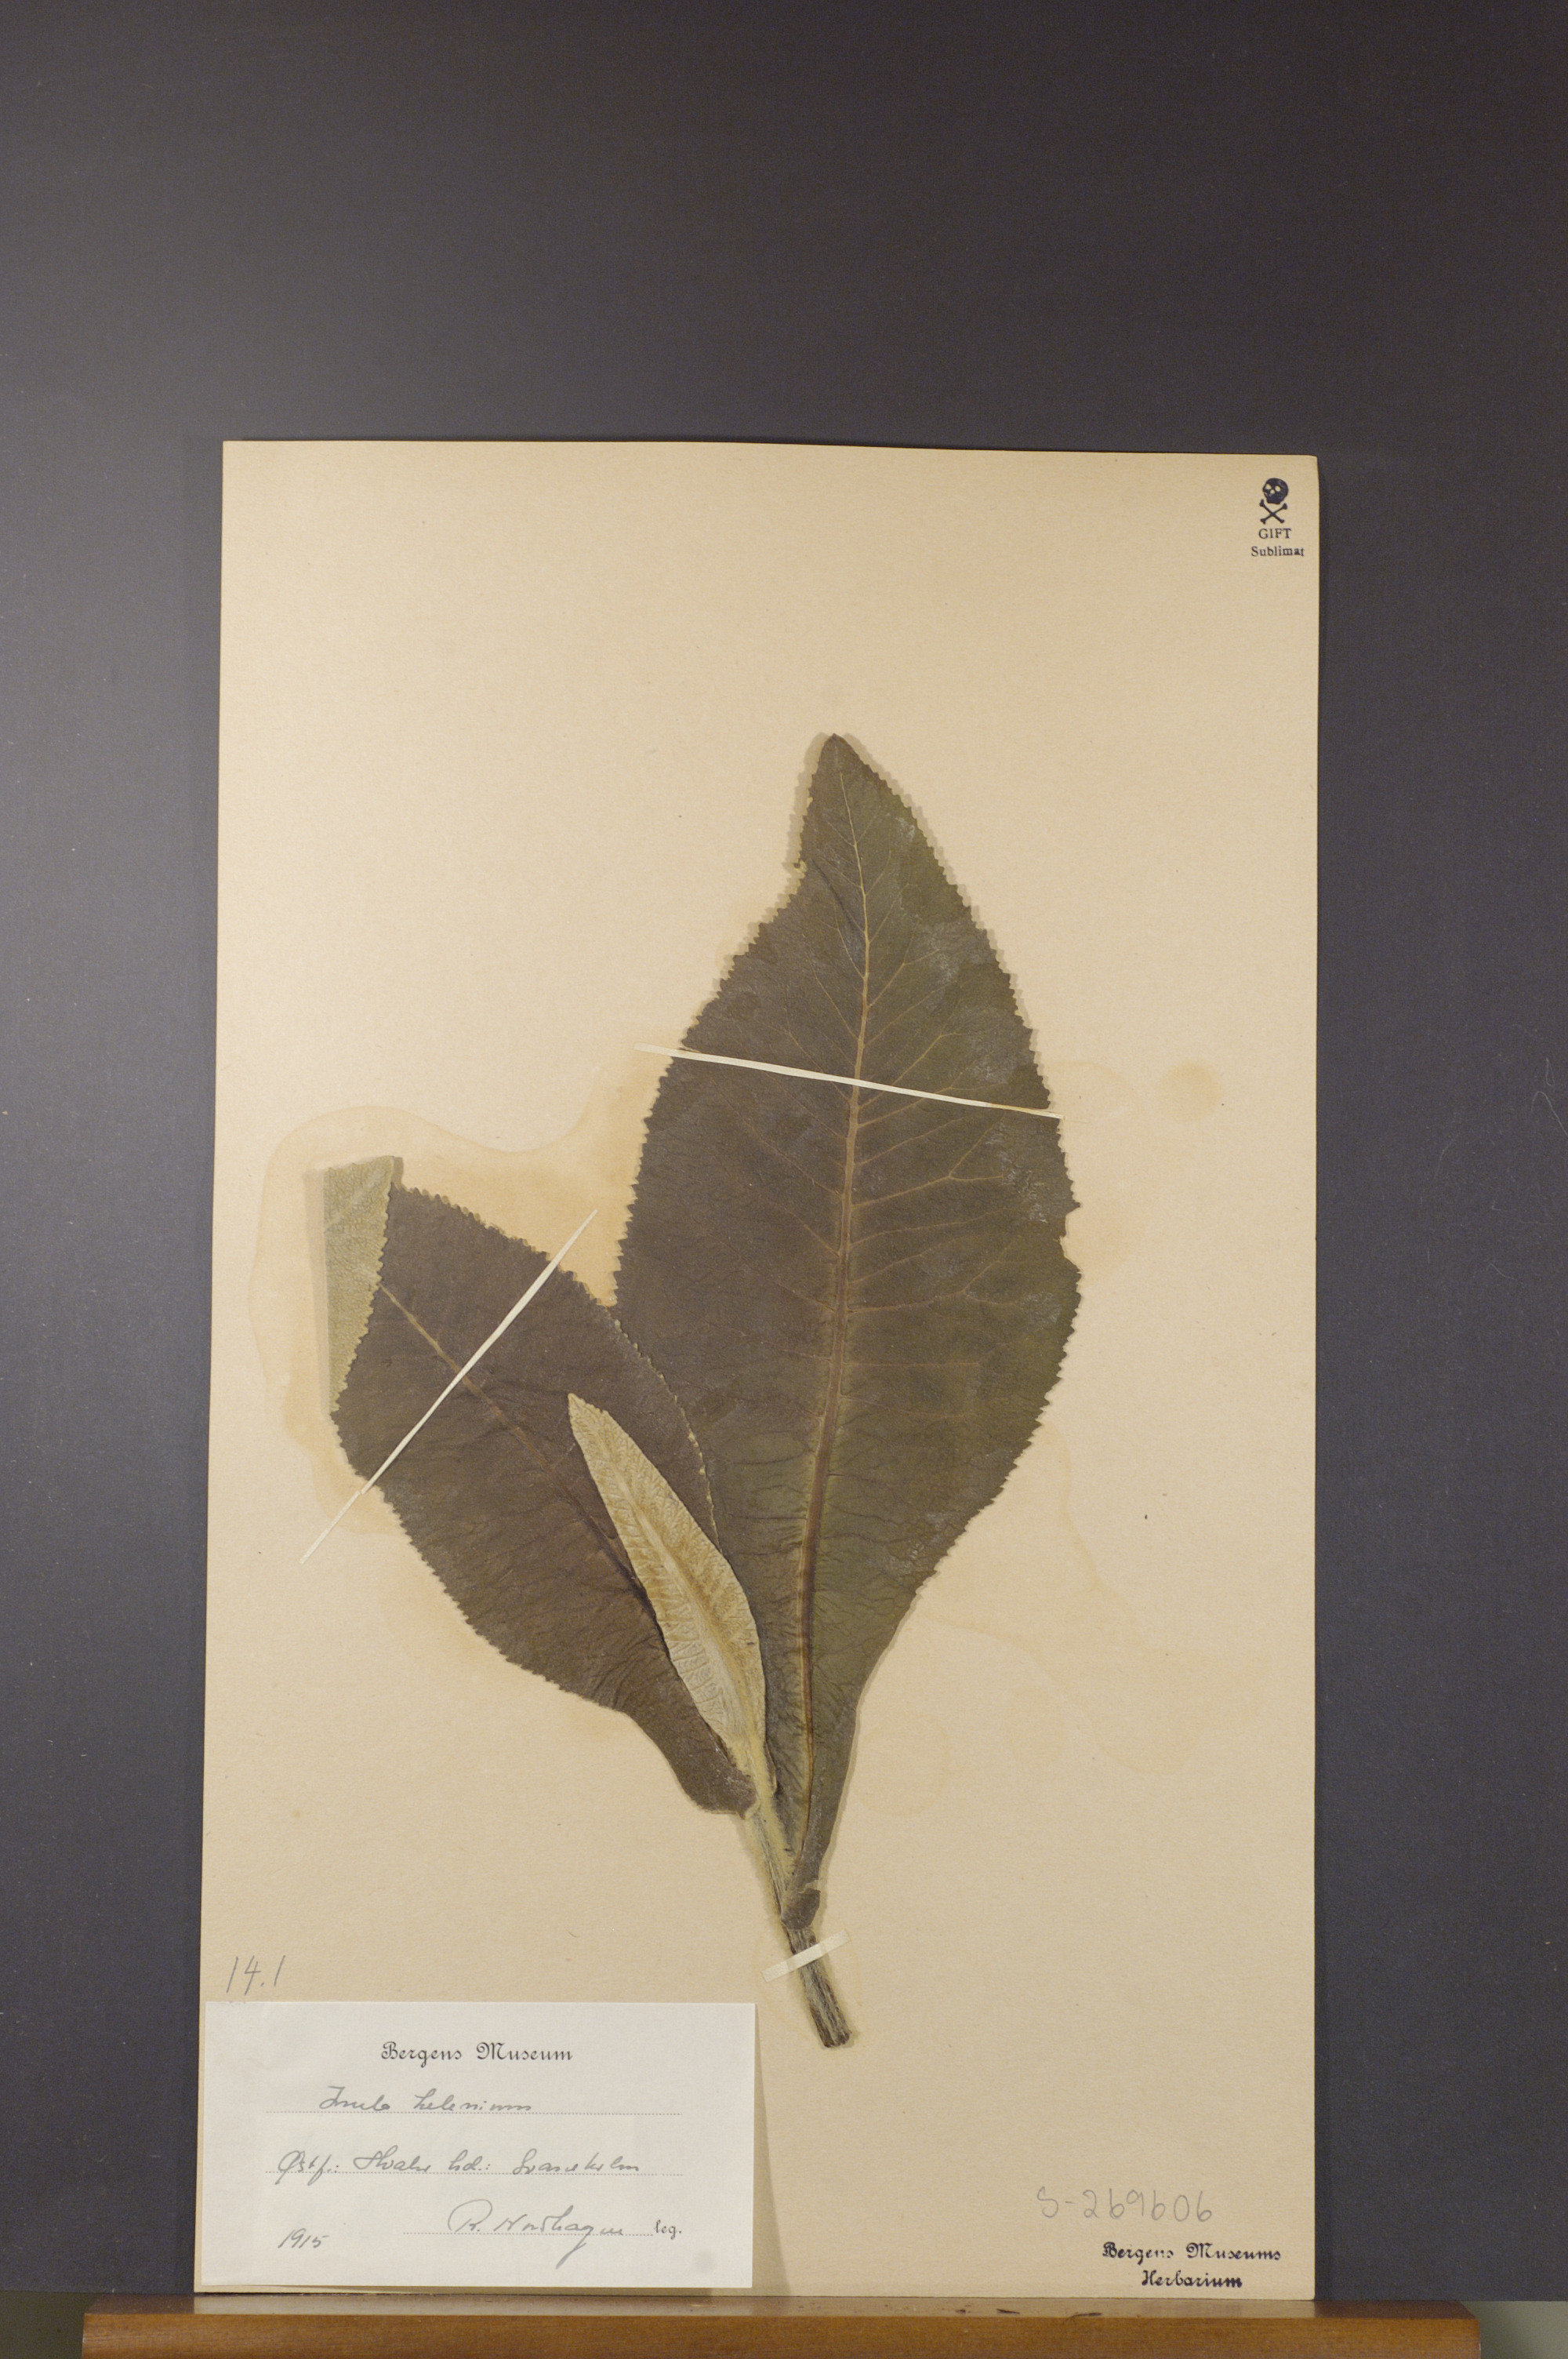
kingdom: Plantae
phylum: Tracheophyta
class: Magnoliopsida
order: Asterales
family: Asteraceae
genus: Inula
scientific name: Inula helenium
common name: Elecampane
